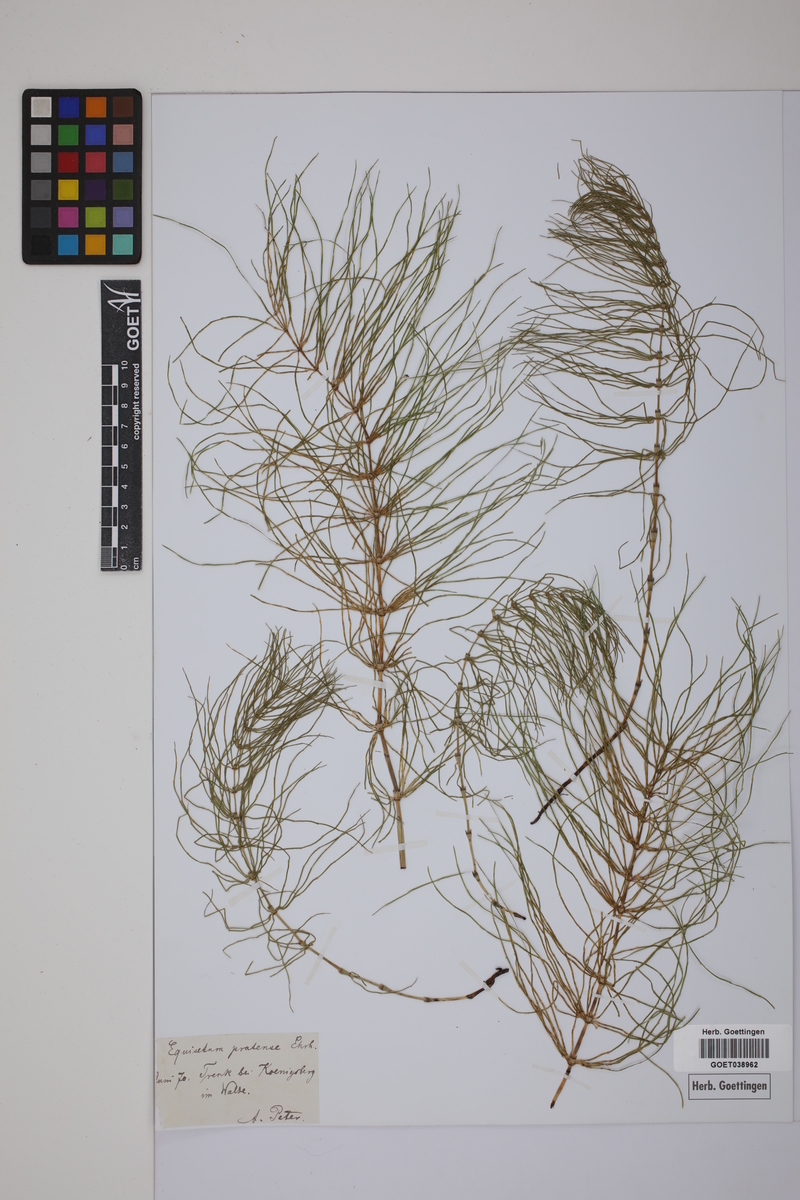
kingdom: Plantae
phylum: Tracheophyta
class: Polypodiopsida
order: Equisetales
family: Equisetaceae
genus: Equisetum
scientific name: Equisetum pratense
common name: Meadow horsetail
